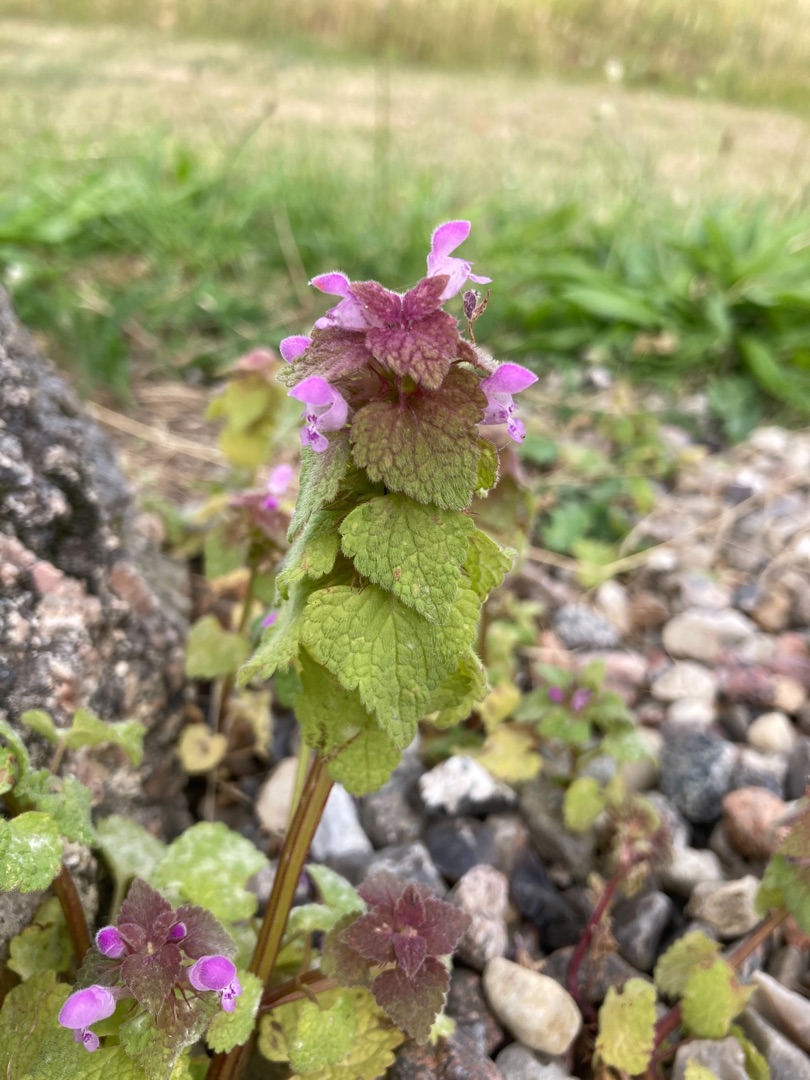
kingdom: Plantae
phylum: Tracheophyta
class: Magnoliopsida
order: Lamiales
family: Lamiaceae
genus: Lamium
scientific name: Lamium purpureum
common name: Rød tvetand
